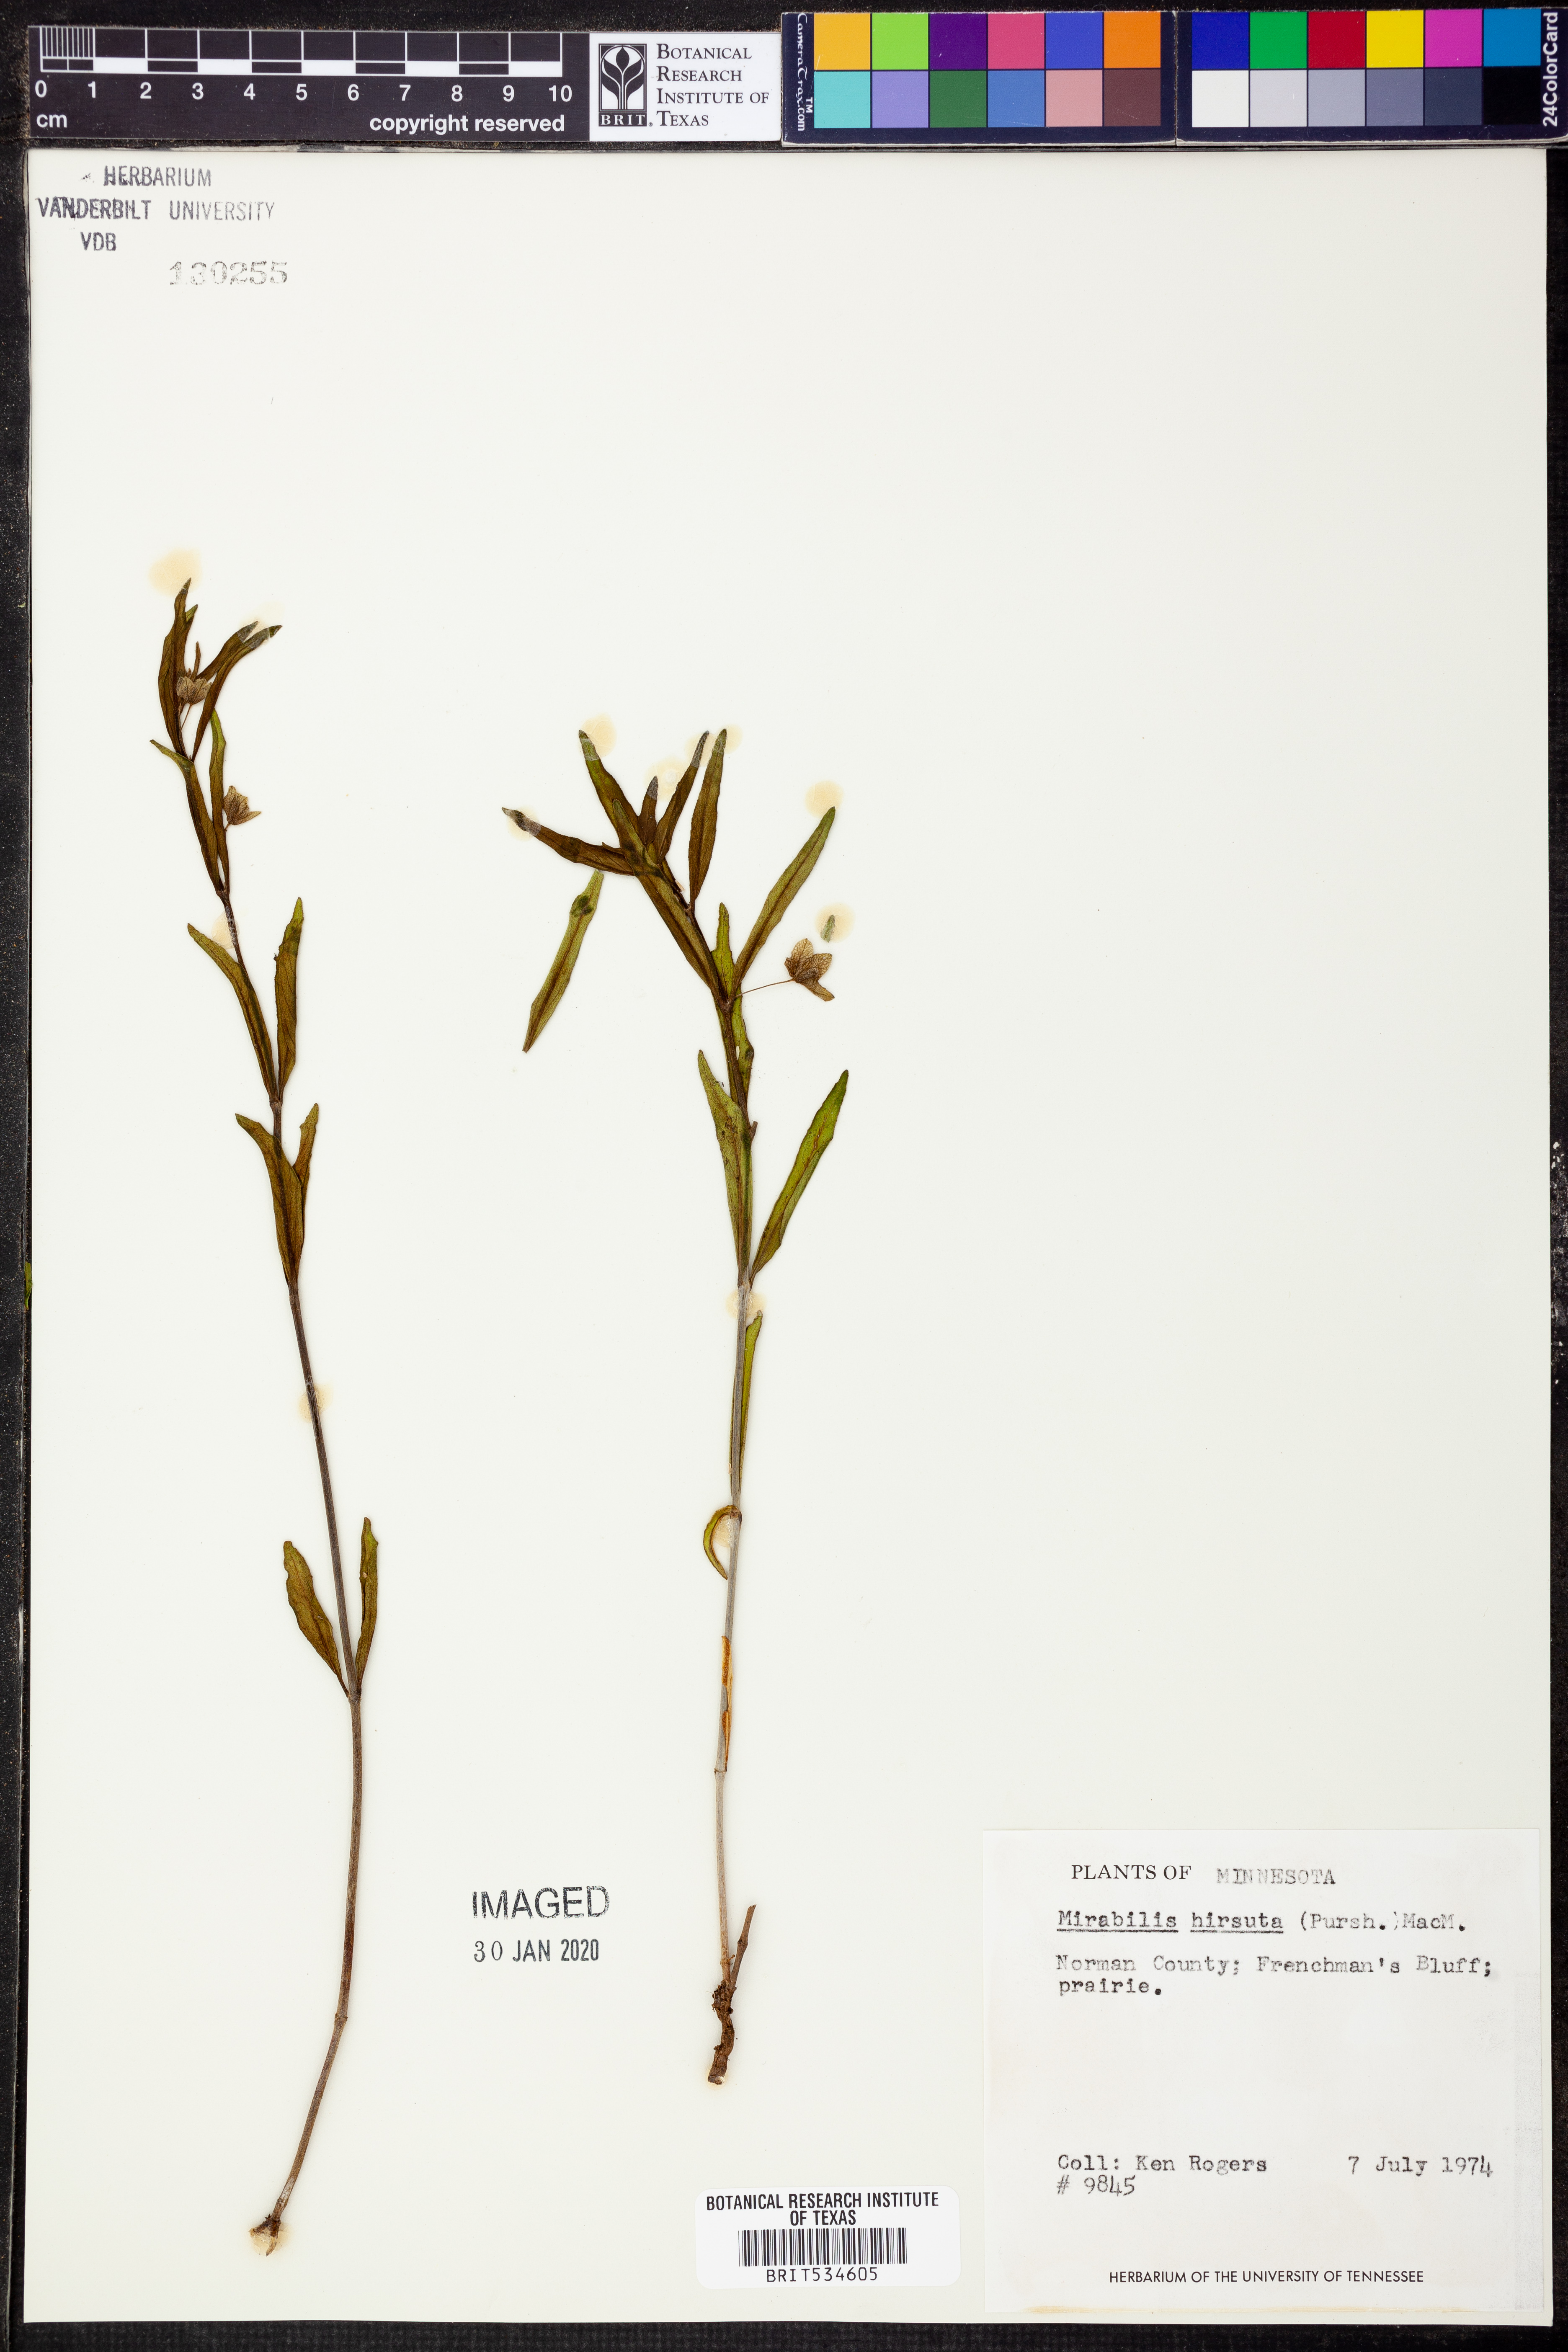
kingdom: Plantae
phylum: Tracheophyta
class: Magnoliopsida
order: Caryophyllales
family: Nyctaginaceae
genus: Mirabilis
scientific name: Mirabilis albida
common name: Hairy four-o'clock
